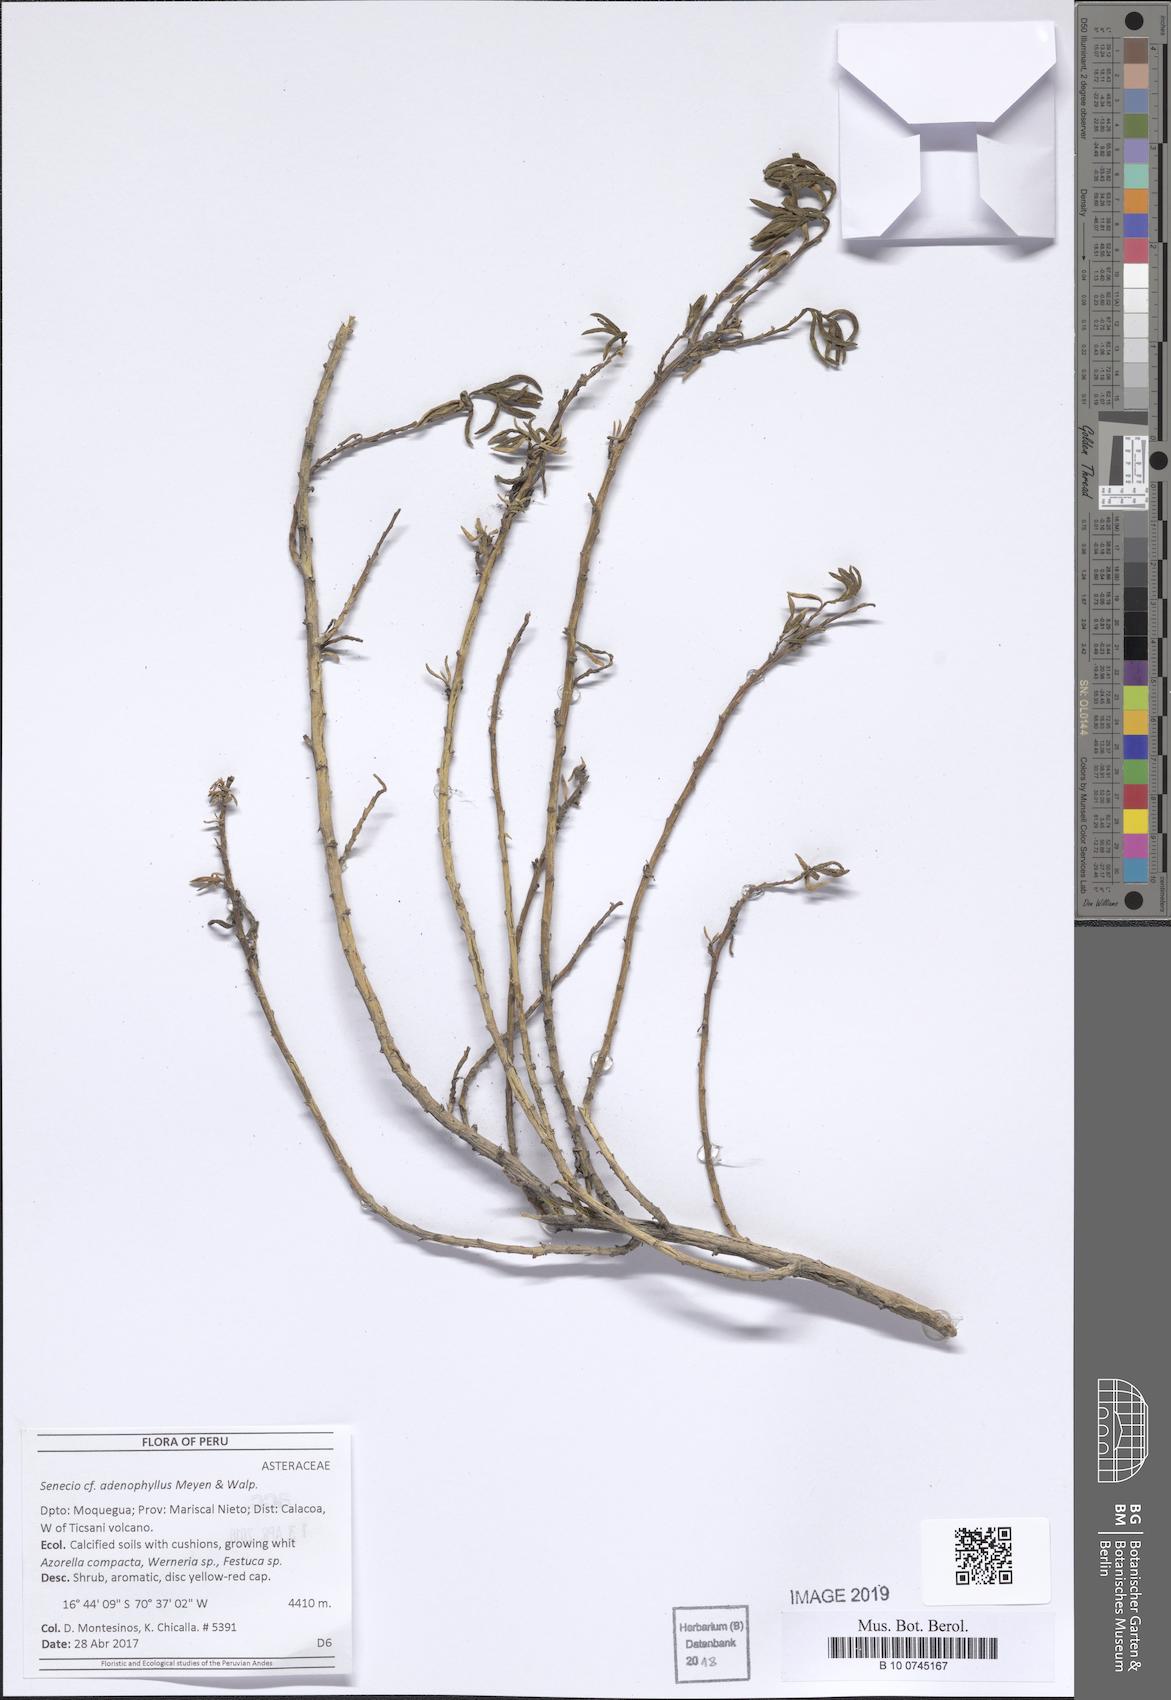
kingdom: Plantae
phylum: Tracheophyta
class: Magnoliopsida
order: Asterales
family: Asteraceae
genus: Senecio
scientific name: Senecio adenophyllus
